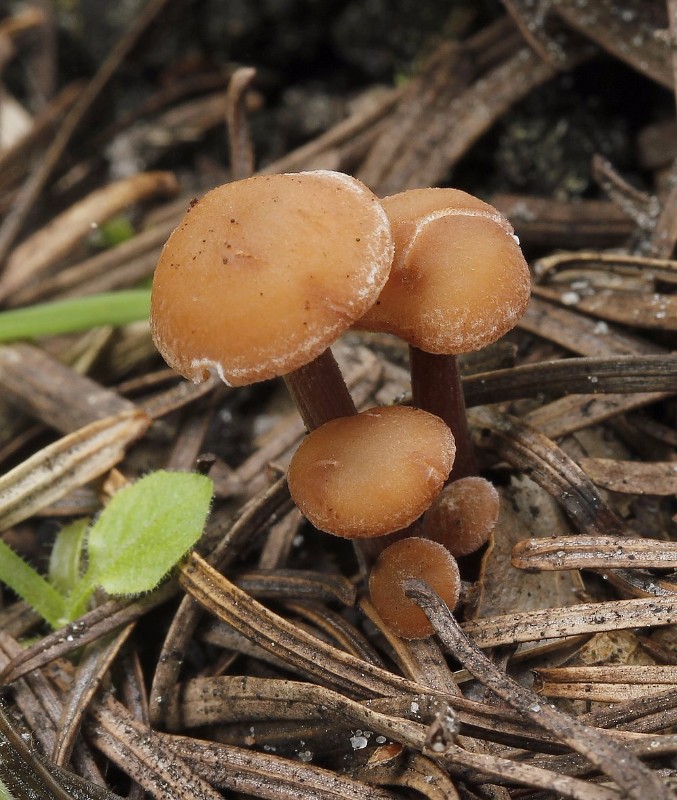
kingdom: Fungi
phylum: Basidiomycota
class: Agaricomycetes
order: Agaricales
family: Omphalotaceae
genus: Collybiopsis
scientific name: Collybiopsis confluens
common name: knippe-fladhat
